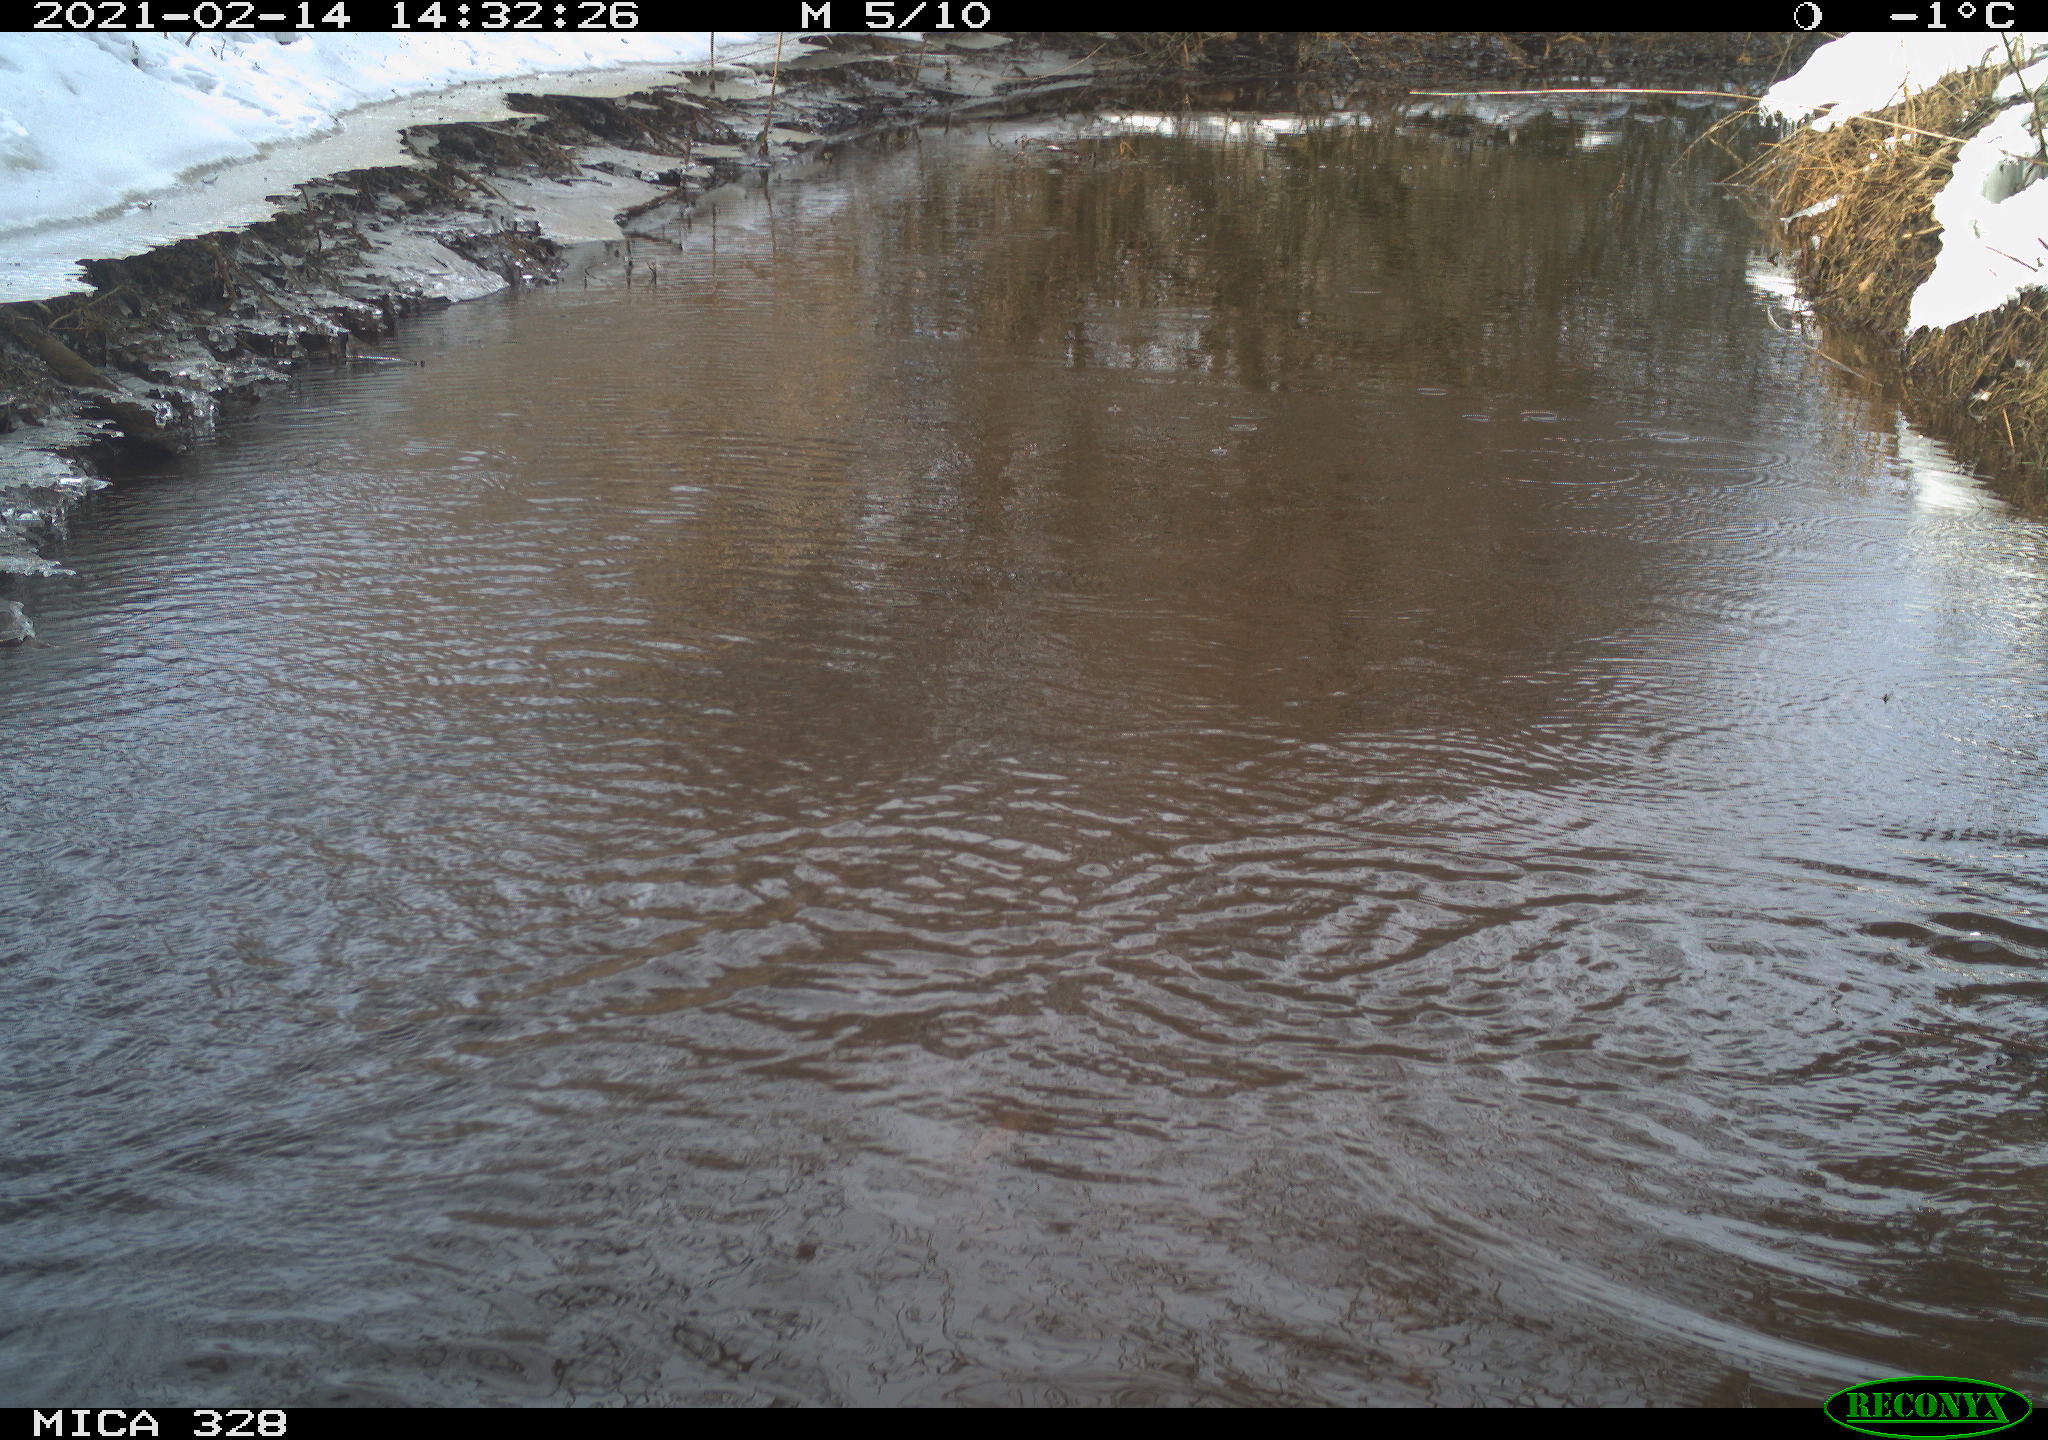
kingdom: Animalia
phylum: Chordata
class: Aves
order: Pelecaniformes
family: Ardeidae
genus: Ardea
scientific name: Ardea alba
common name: Great egret
